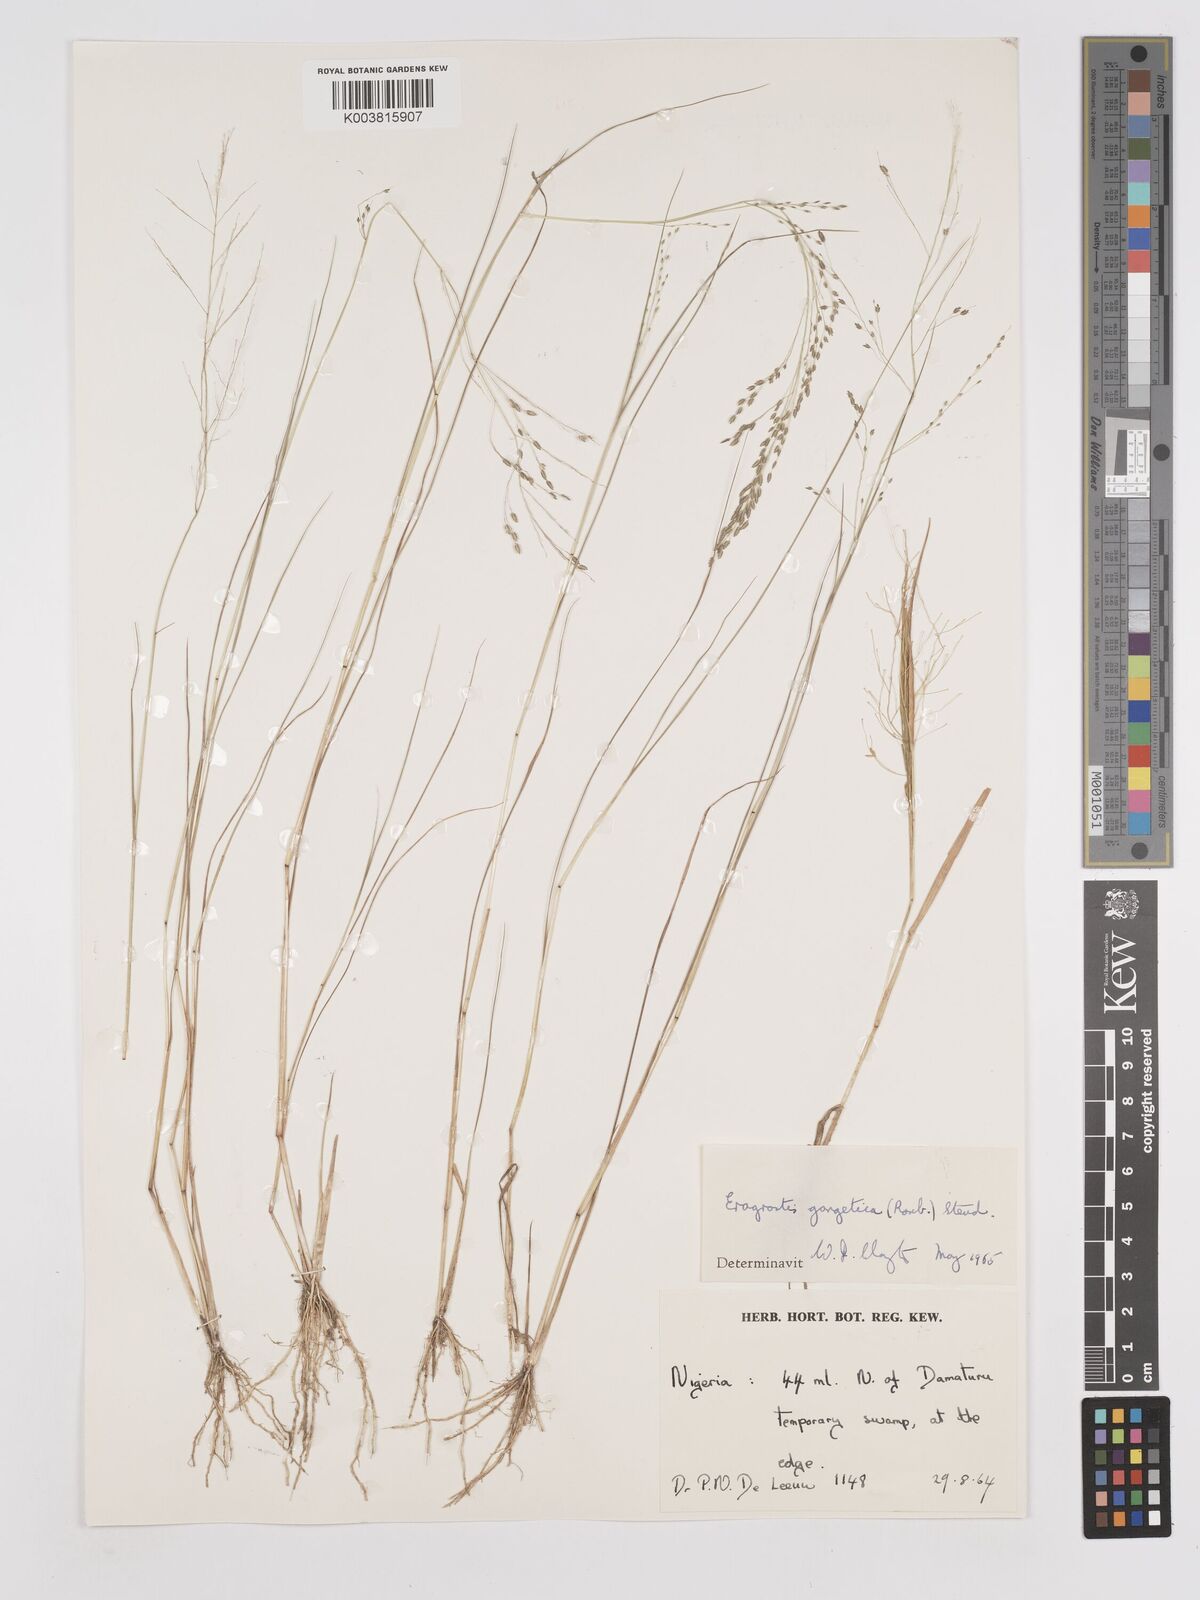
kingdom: Plantae
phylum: Tracheophyta
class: Liliopsida
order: Poales
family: Poaceae
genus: Eragrostis
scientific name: Eragrostis gangetica
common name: Slimflower lovegrass
